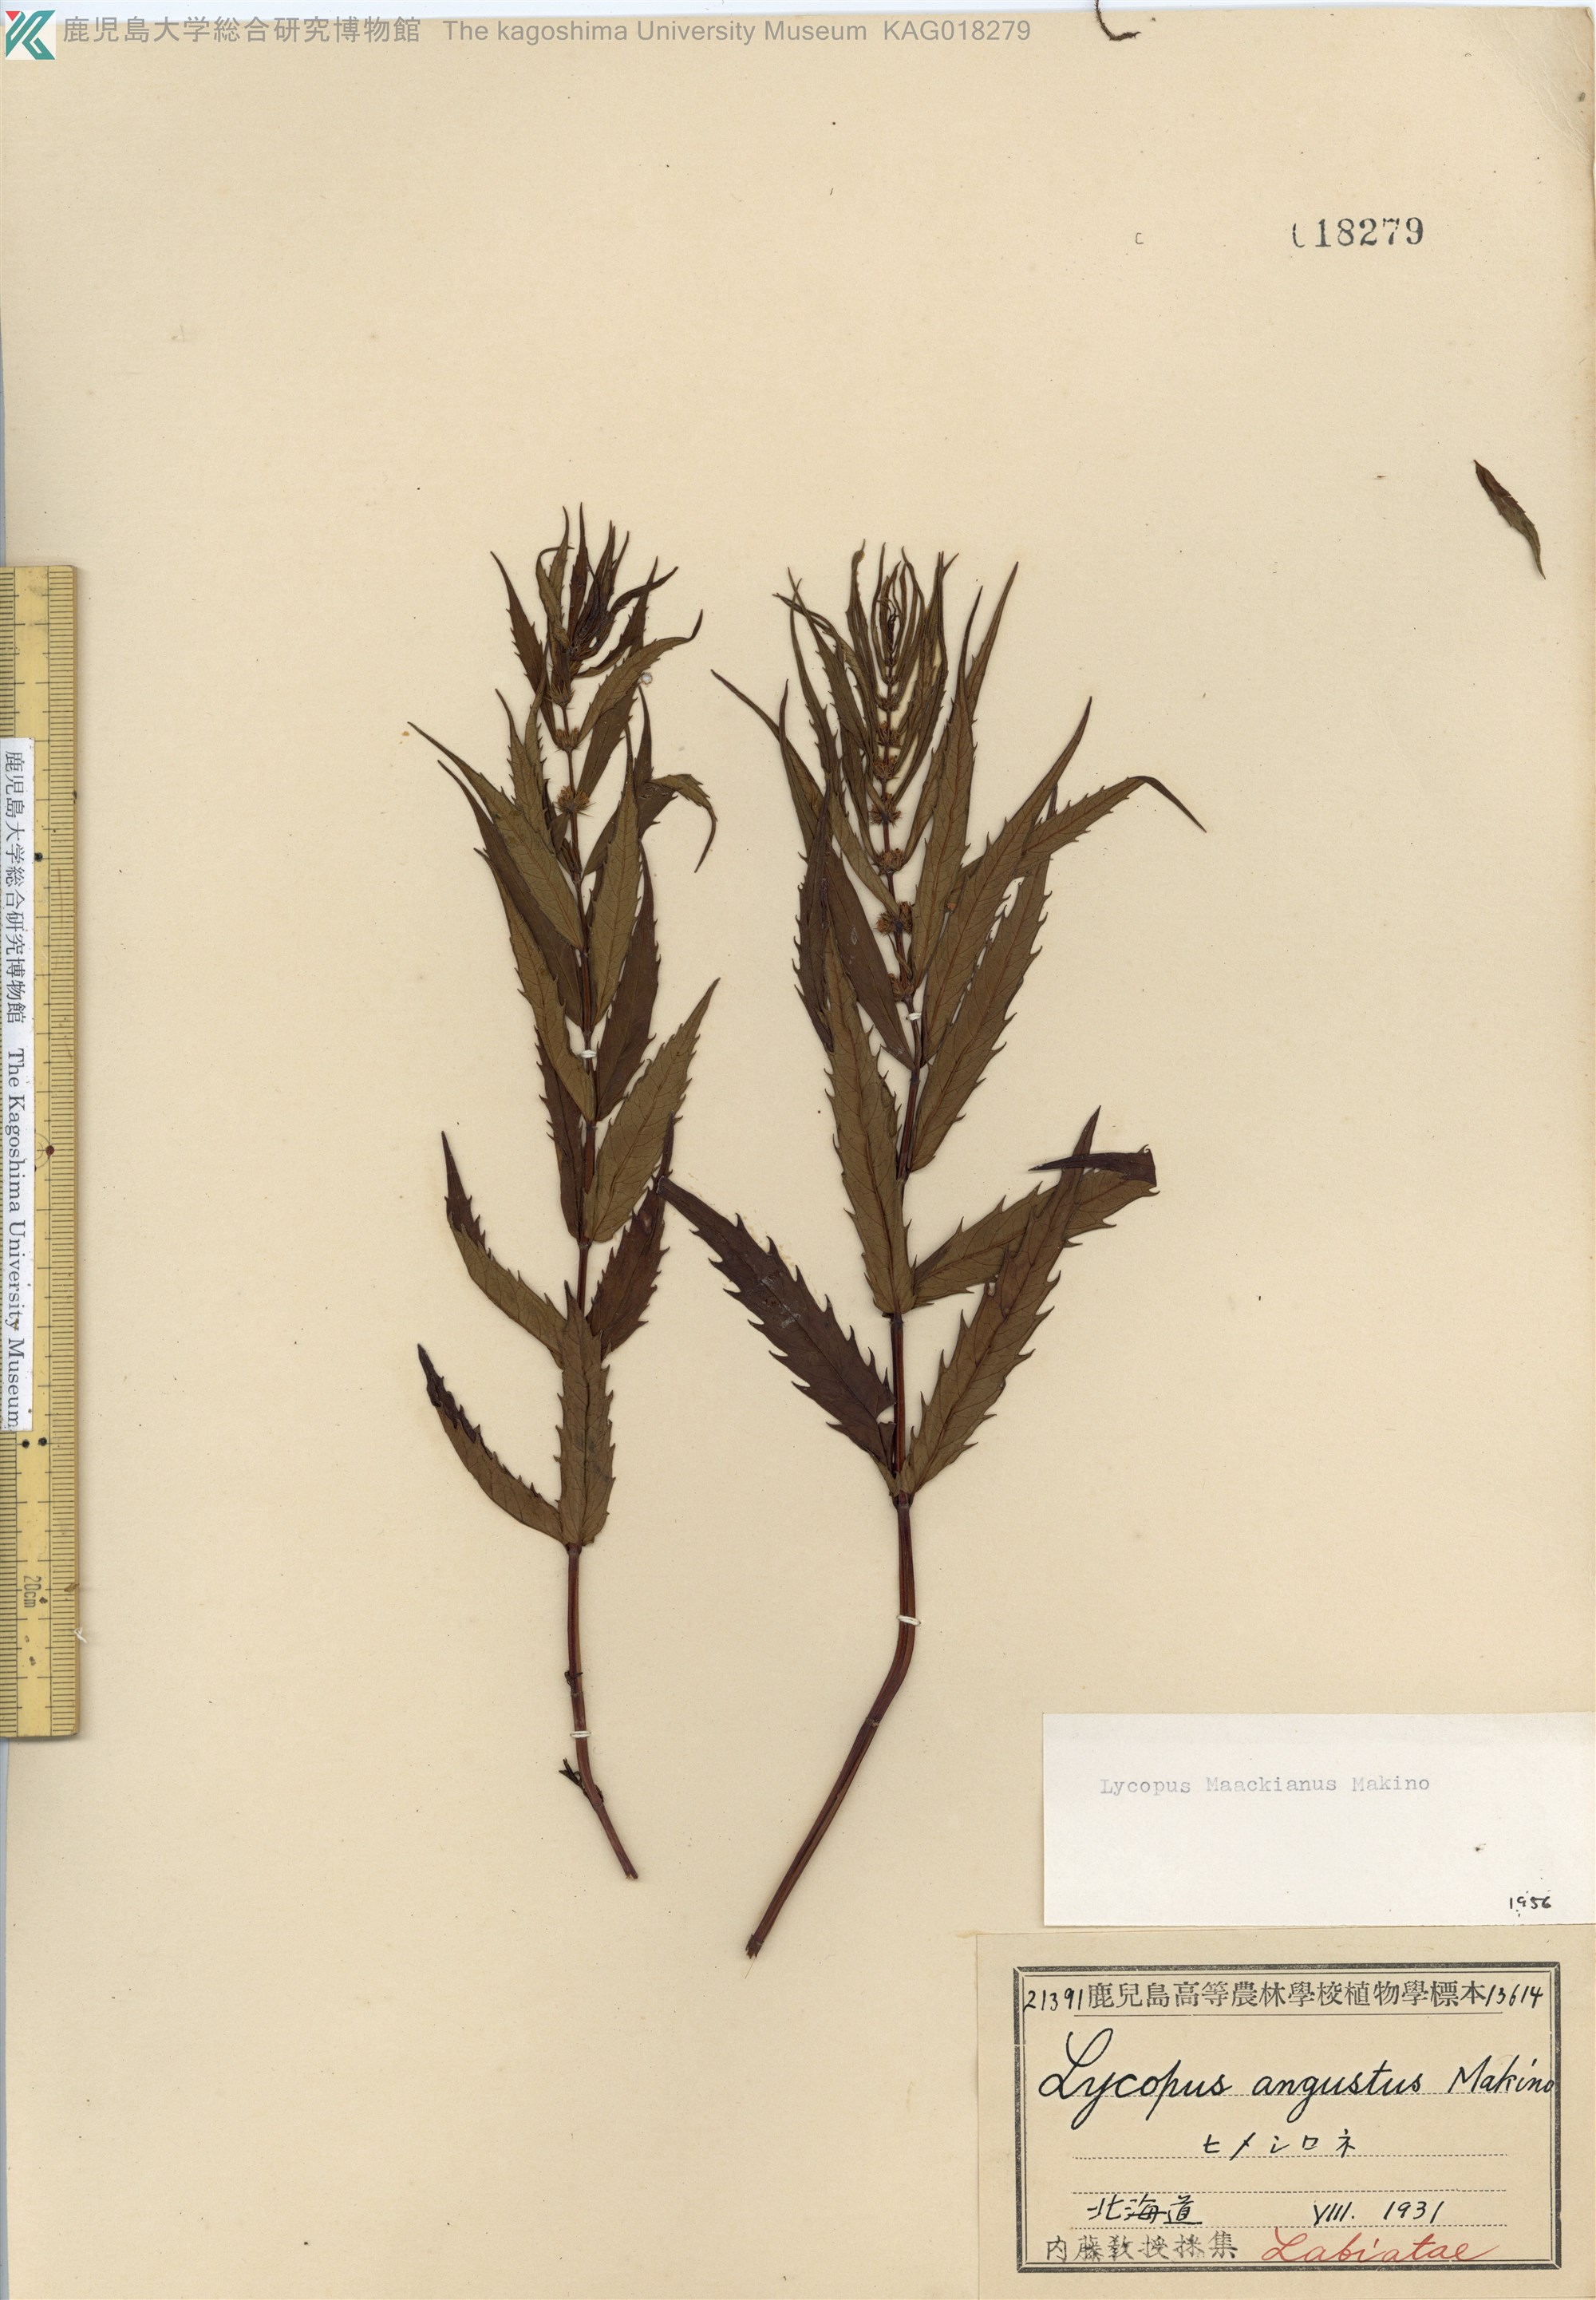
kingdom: Plantae
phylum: Tracheophyta
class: Magnoliopsida
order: Lamiales
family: Lamiaceae
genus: Lycopus
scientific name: Lycopus lucidus
